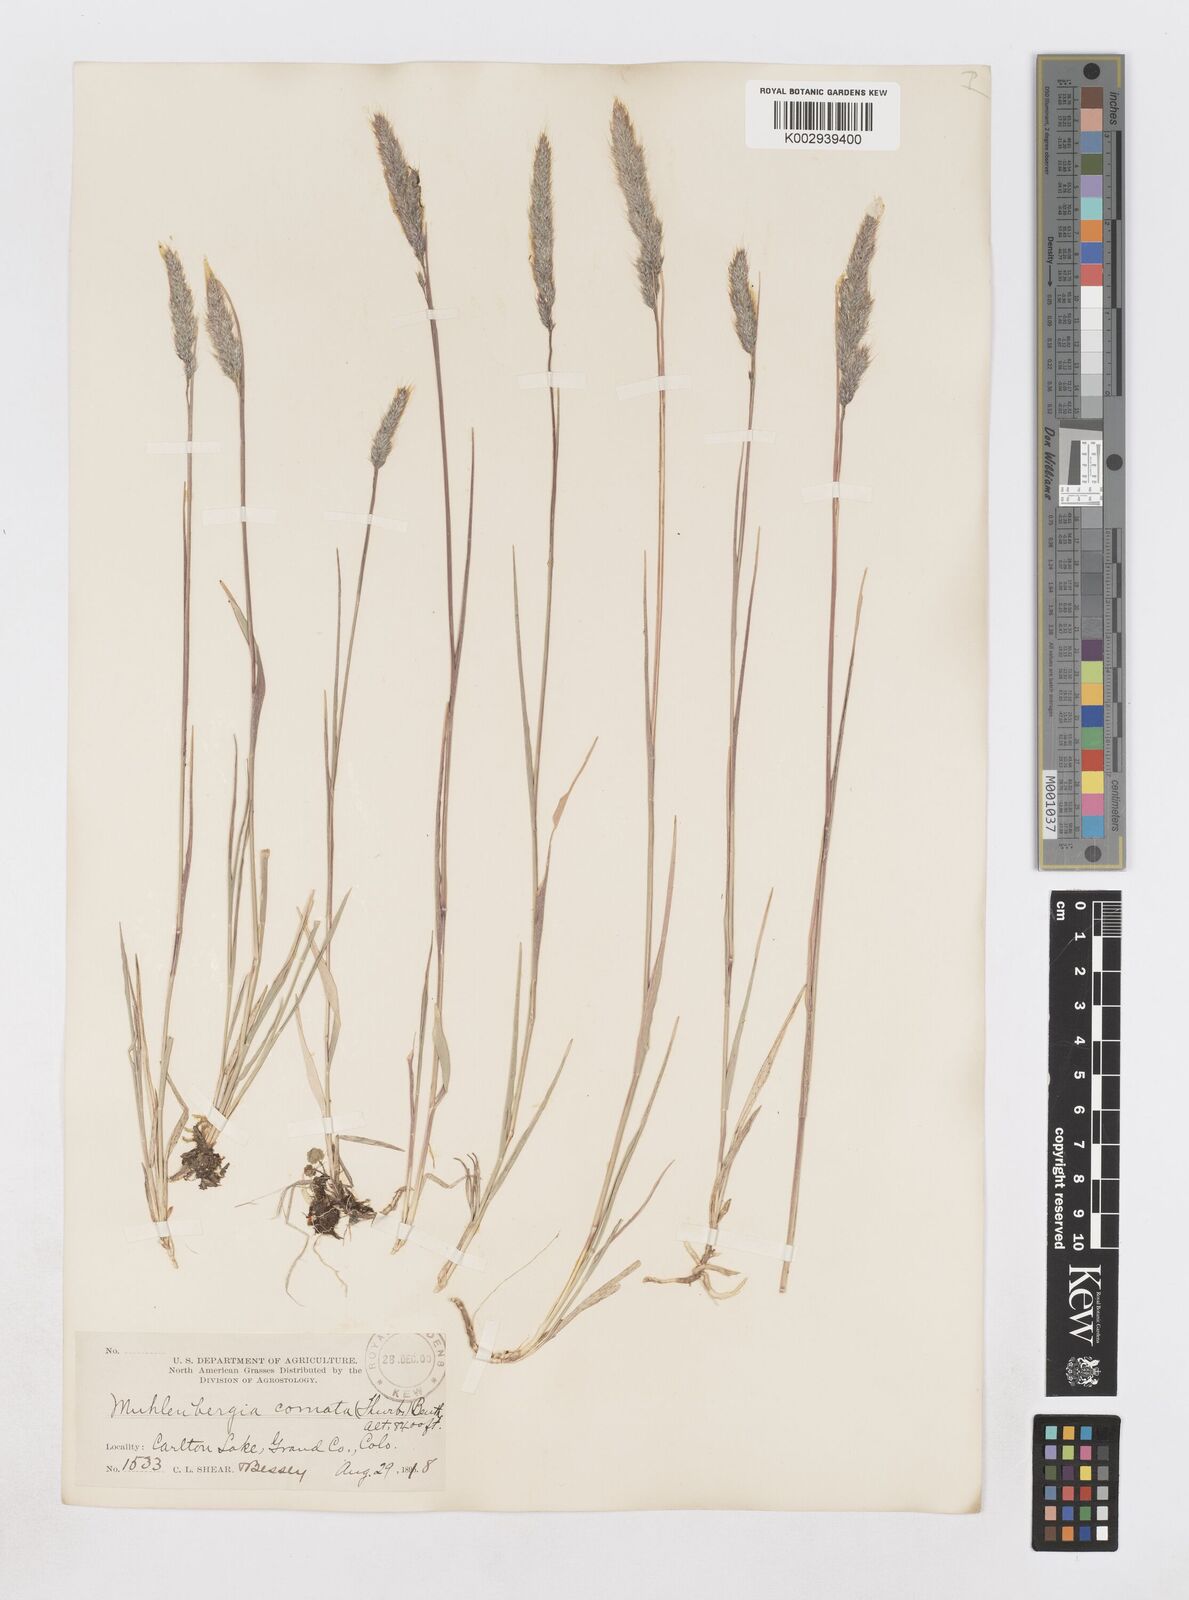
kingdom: Plantae
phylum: Tracheophyta
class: Liliopsida
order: Poales
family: Poaceae
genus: Muhlenbergia
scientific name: Muhlenbergia andina
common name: Foxtail muhly
